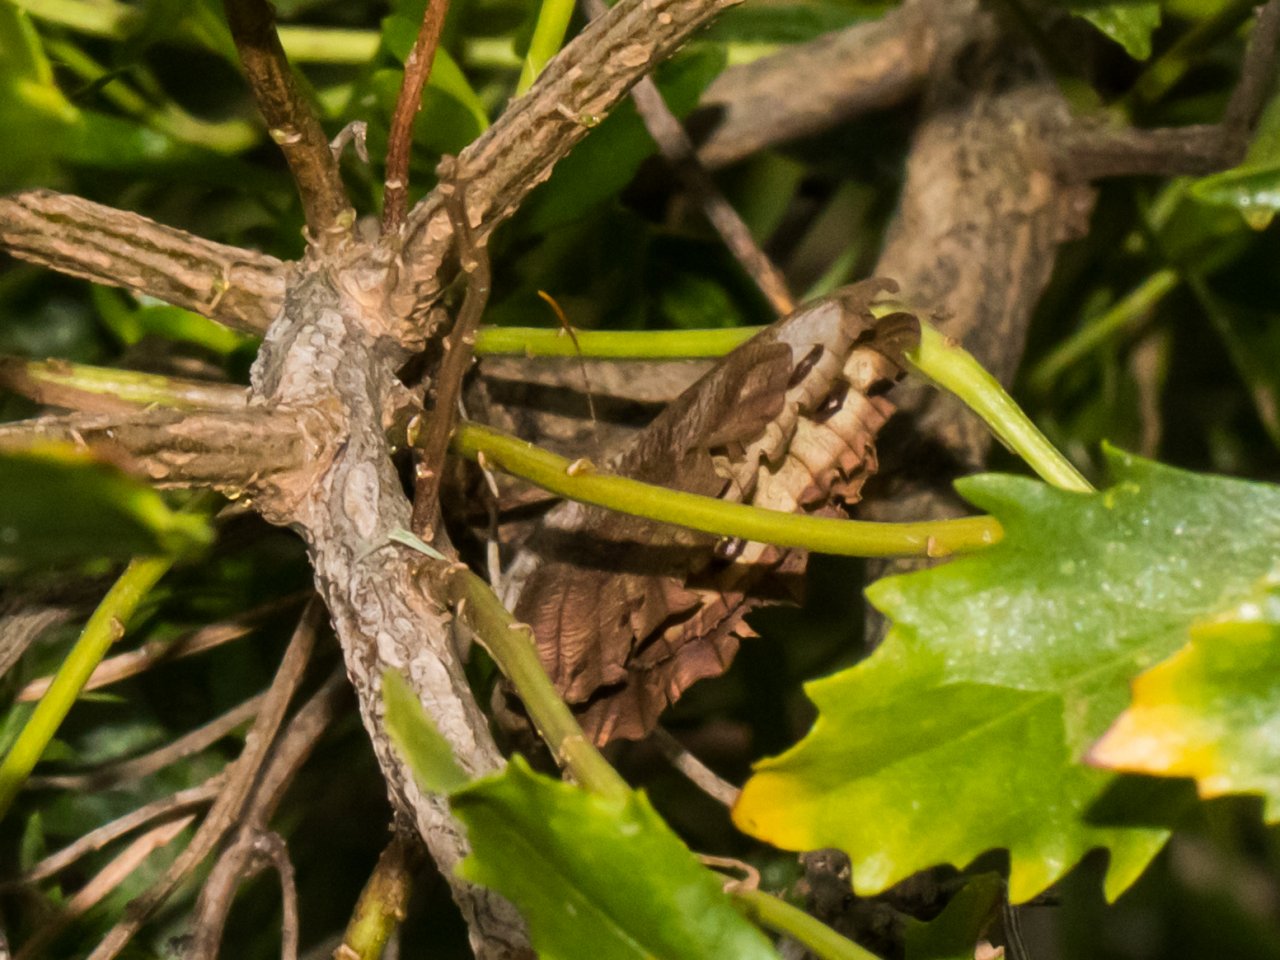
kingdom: Animalia
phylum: Arthropoda
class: Insecta
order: Lepidoptera
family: Nymphalidae
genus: Cercyonis
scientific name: Cercyonis pegala
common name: Common Wood-Nymph
